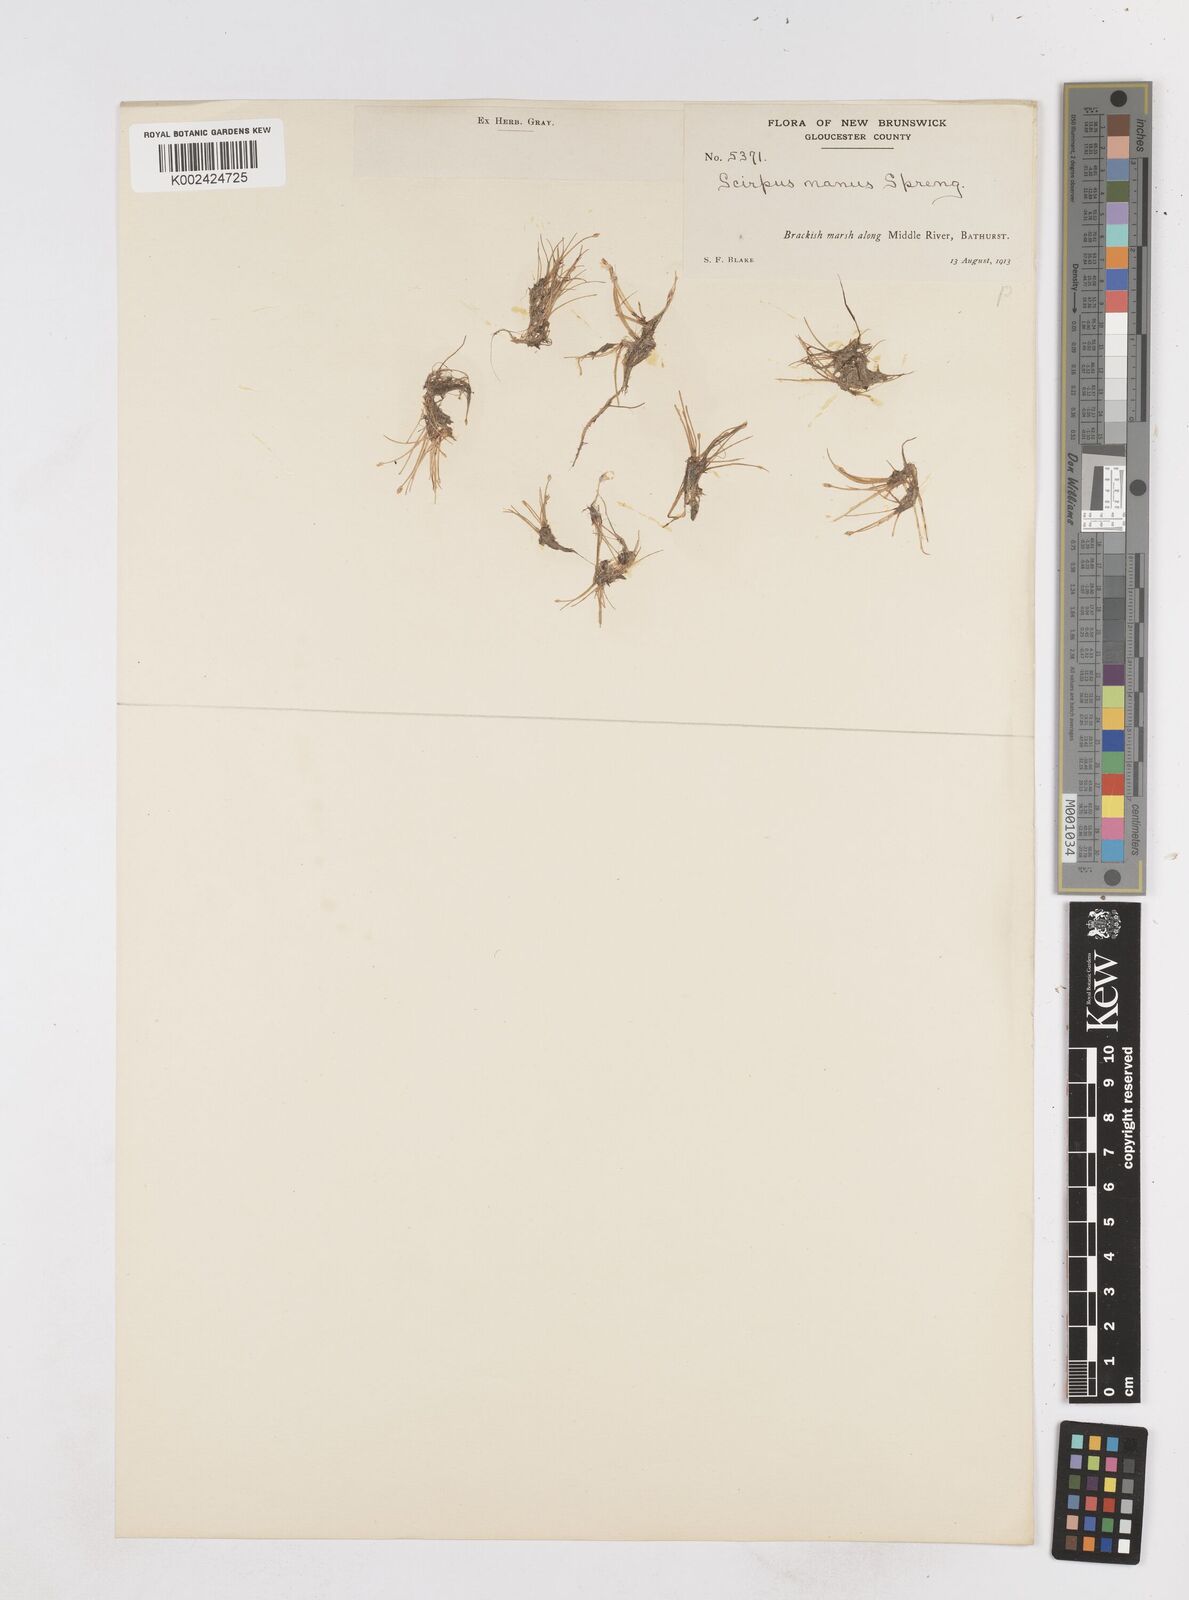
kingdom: Plantae
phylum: Tracheophyta
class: Liliopsida
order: Poales
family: Cyperaceae
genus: Eleocharis
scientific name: Eleocharis parvula
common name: Dwarf spike-rush
